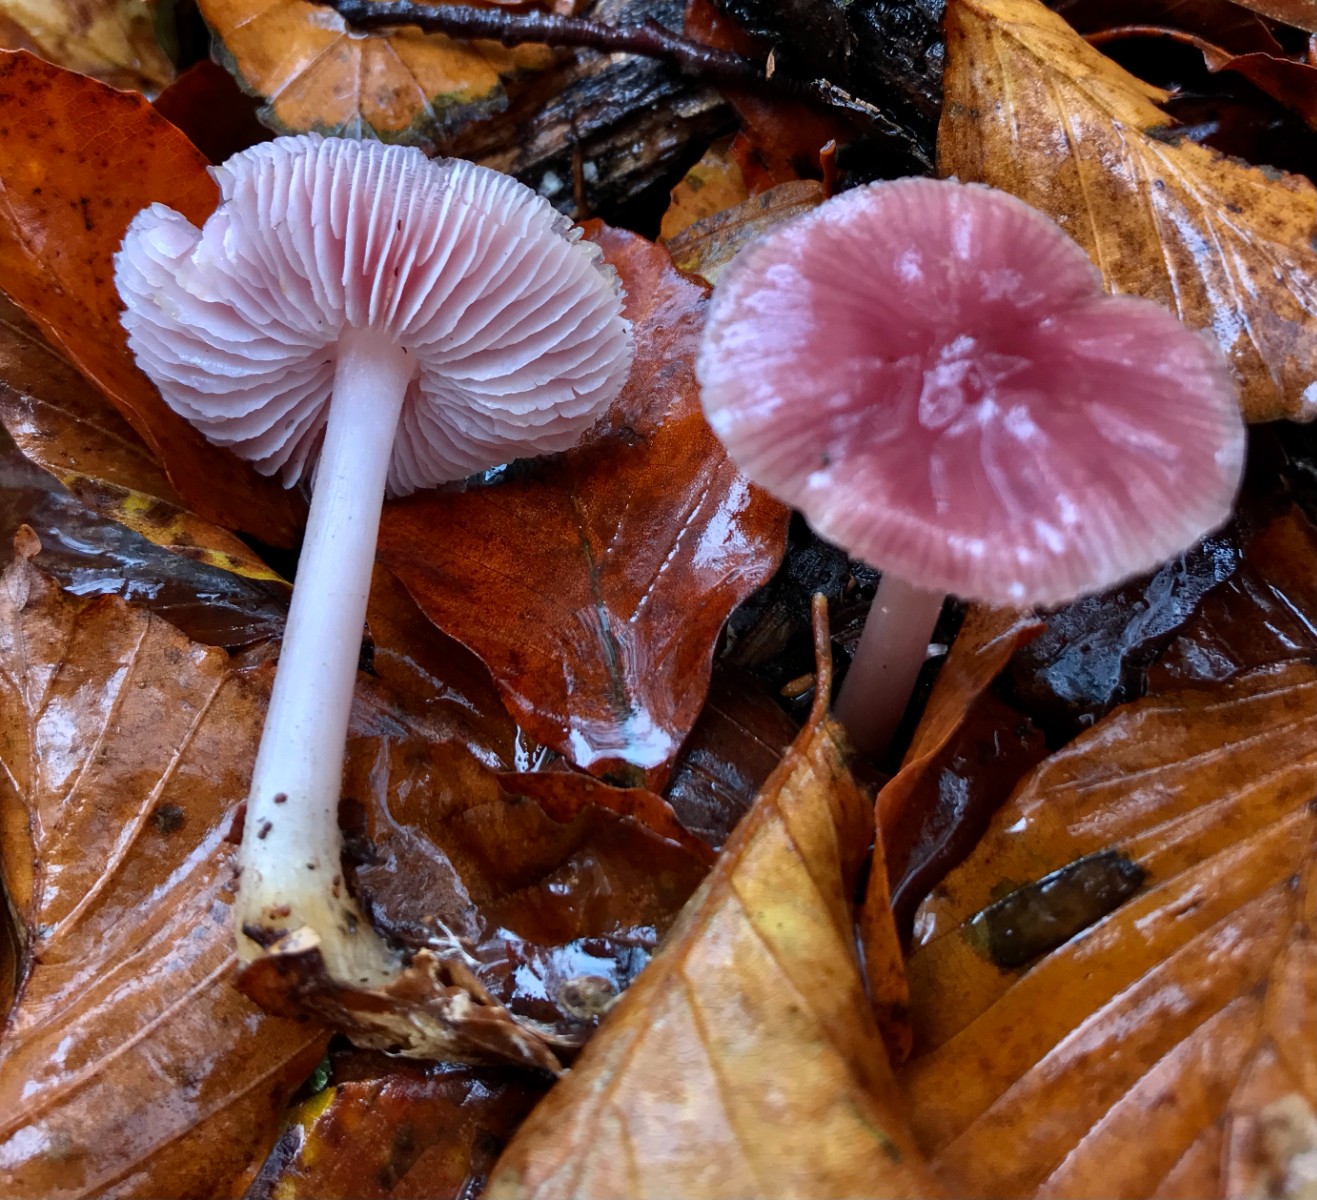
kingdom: Fungi
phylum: Basidiomycota
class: Agaricomycetes
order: Agaricales
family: Mycenaceae
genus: Mycena
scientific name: Mycena rosea
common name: rosa huesvamp
